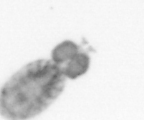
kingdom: Animalia
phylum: Arthropoda
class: Copepoda
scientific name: Copepoda
